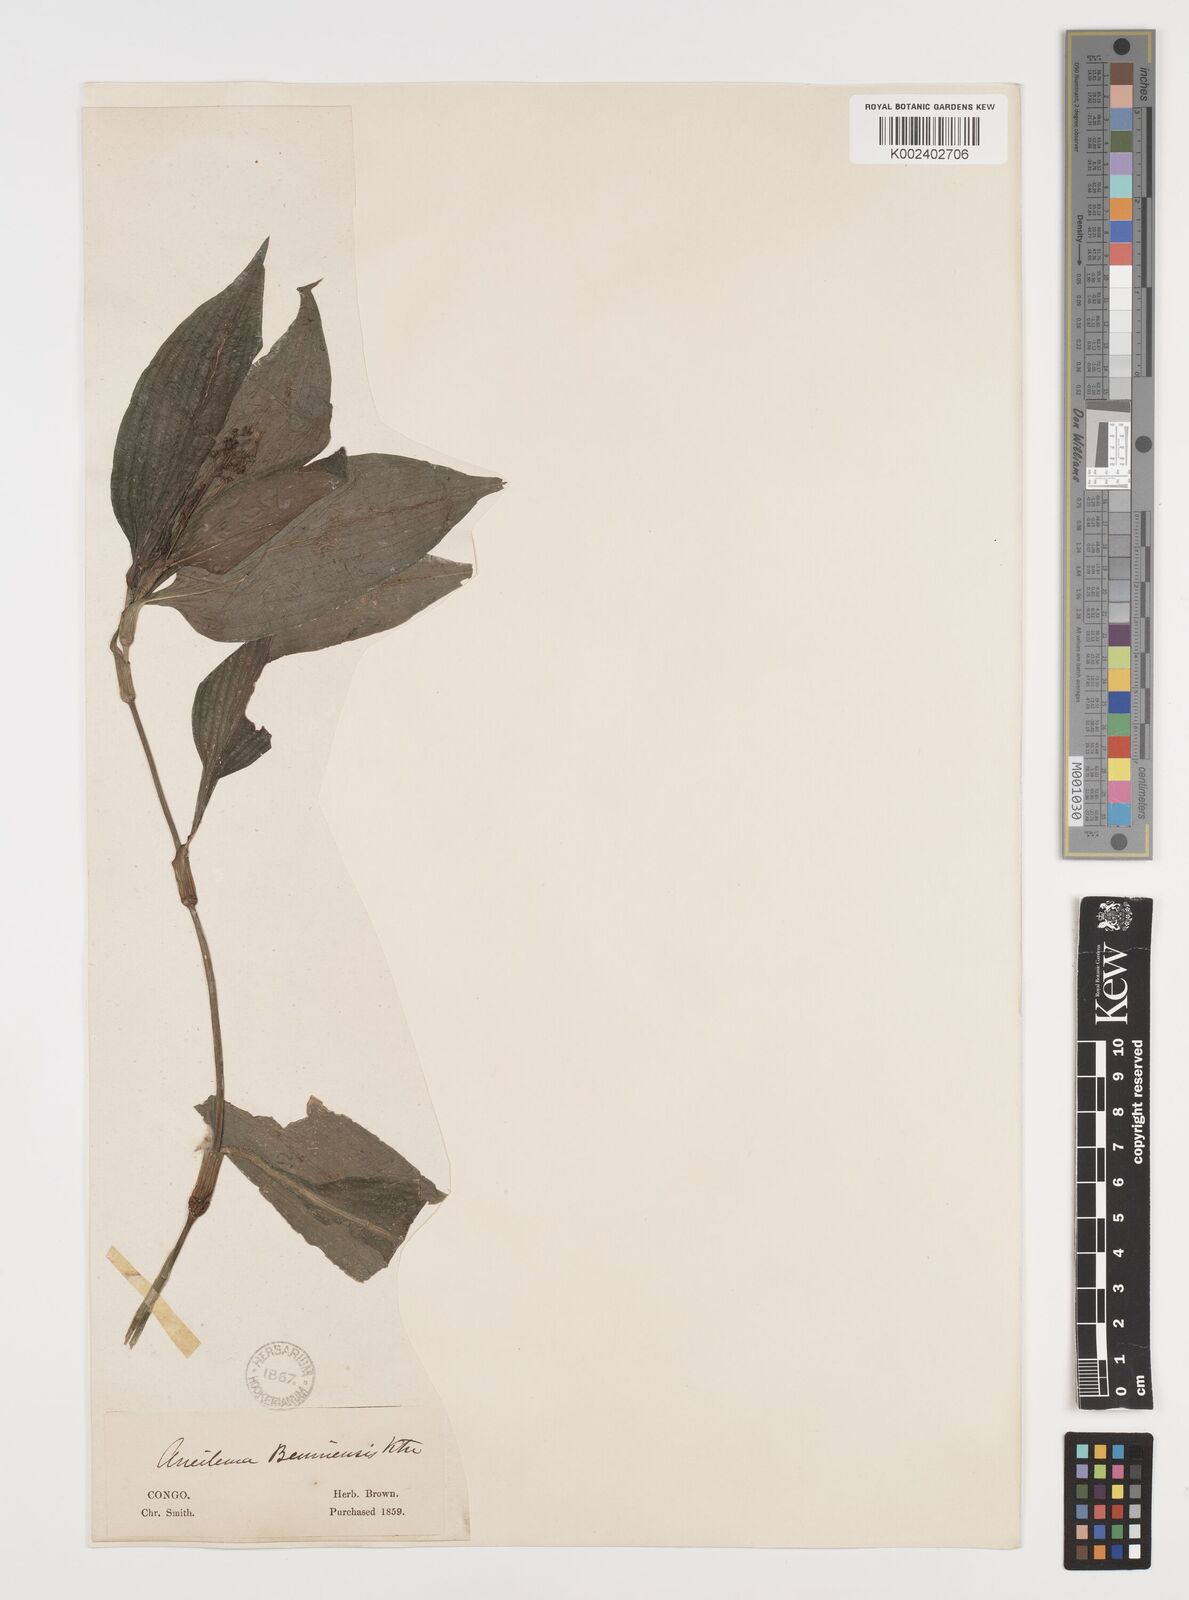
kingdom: Plantae
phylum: Tracheophyta
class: Liliopsida
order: Commelinales
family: Commelinaceae
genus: Aneilema
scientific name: Aneilema beniniense
